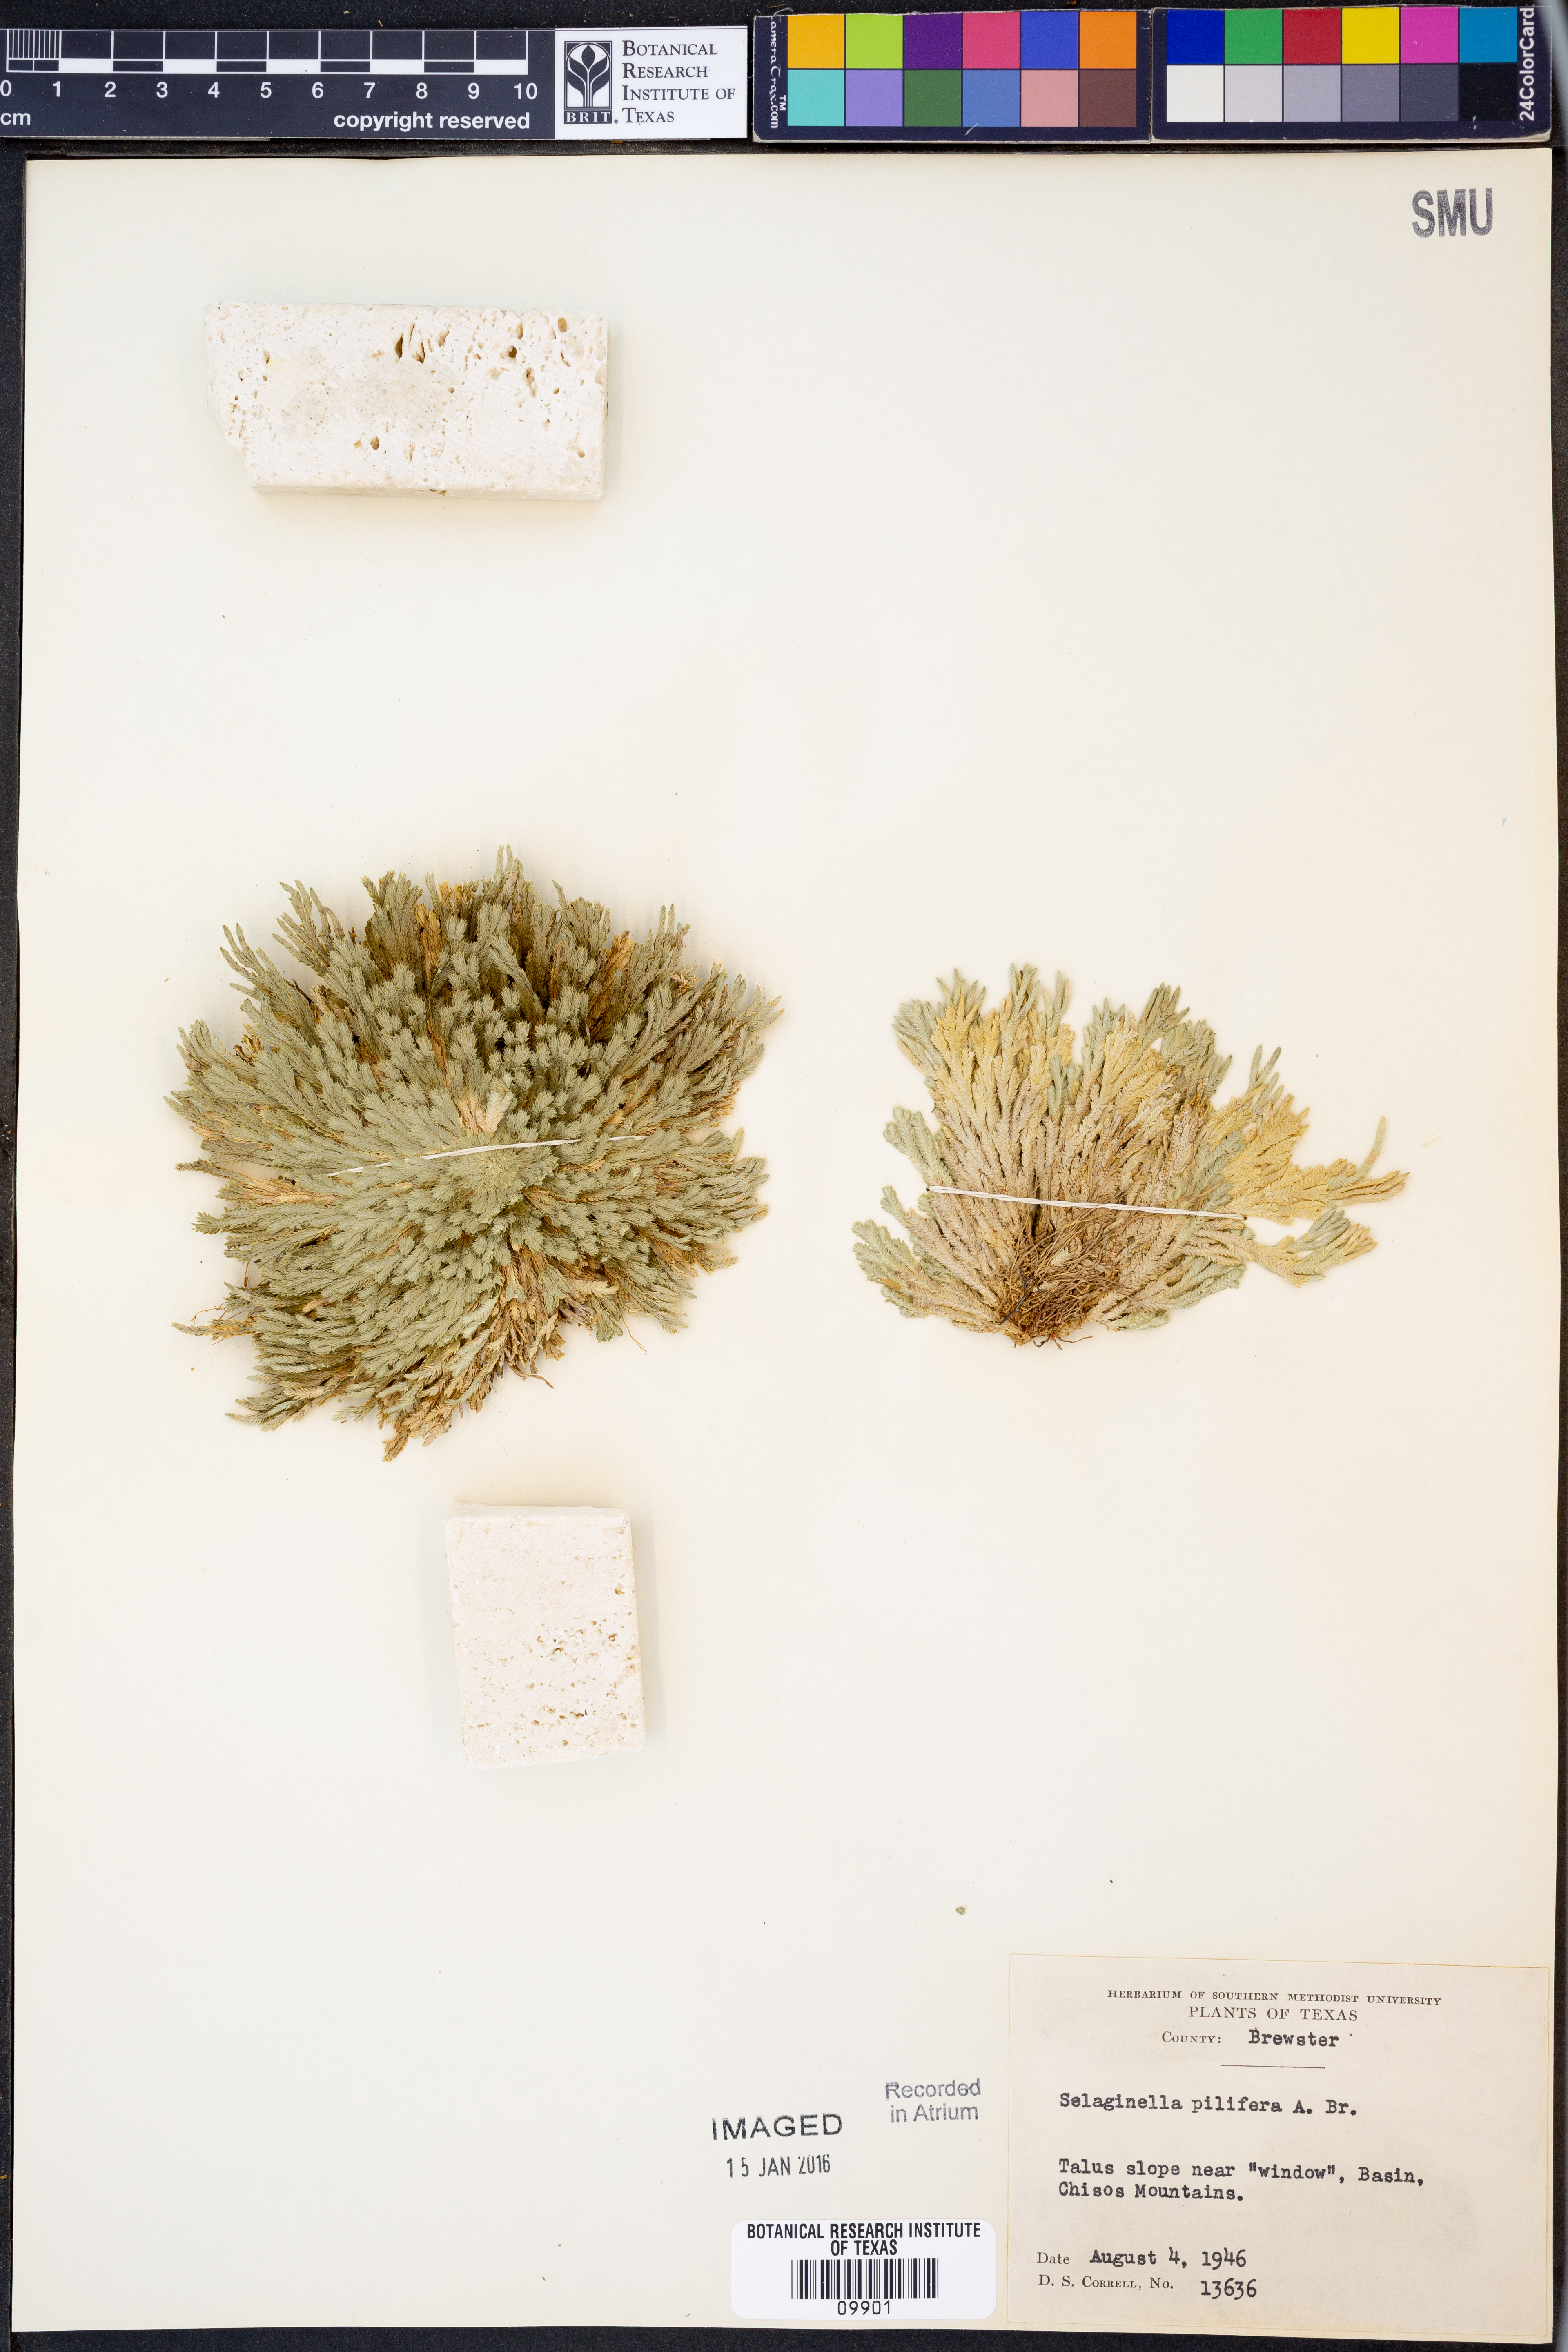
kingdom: Plantae
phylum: Tracheophyta
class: Lycopodiopsida
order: Selaginellales
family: Selaginellaceae
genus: Selaginella
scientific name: Selaginella pilifera
